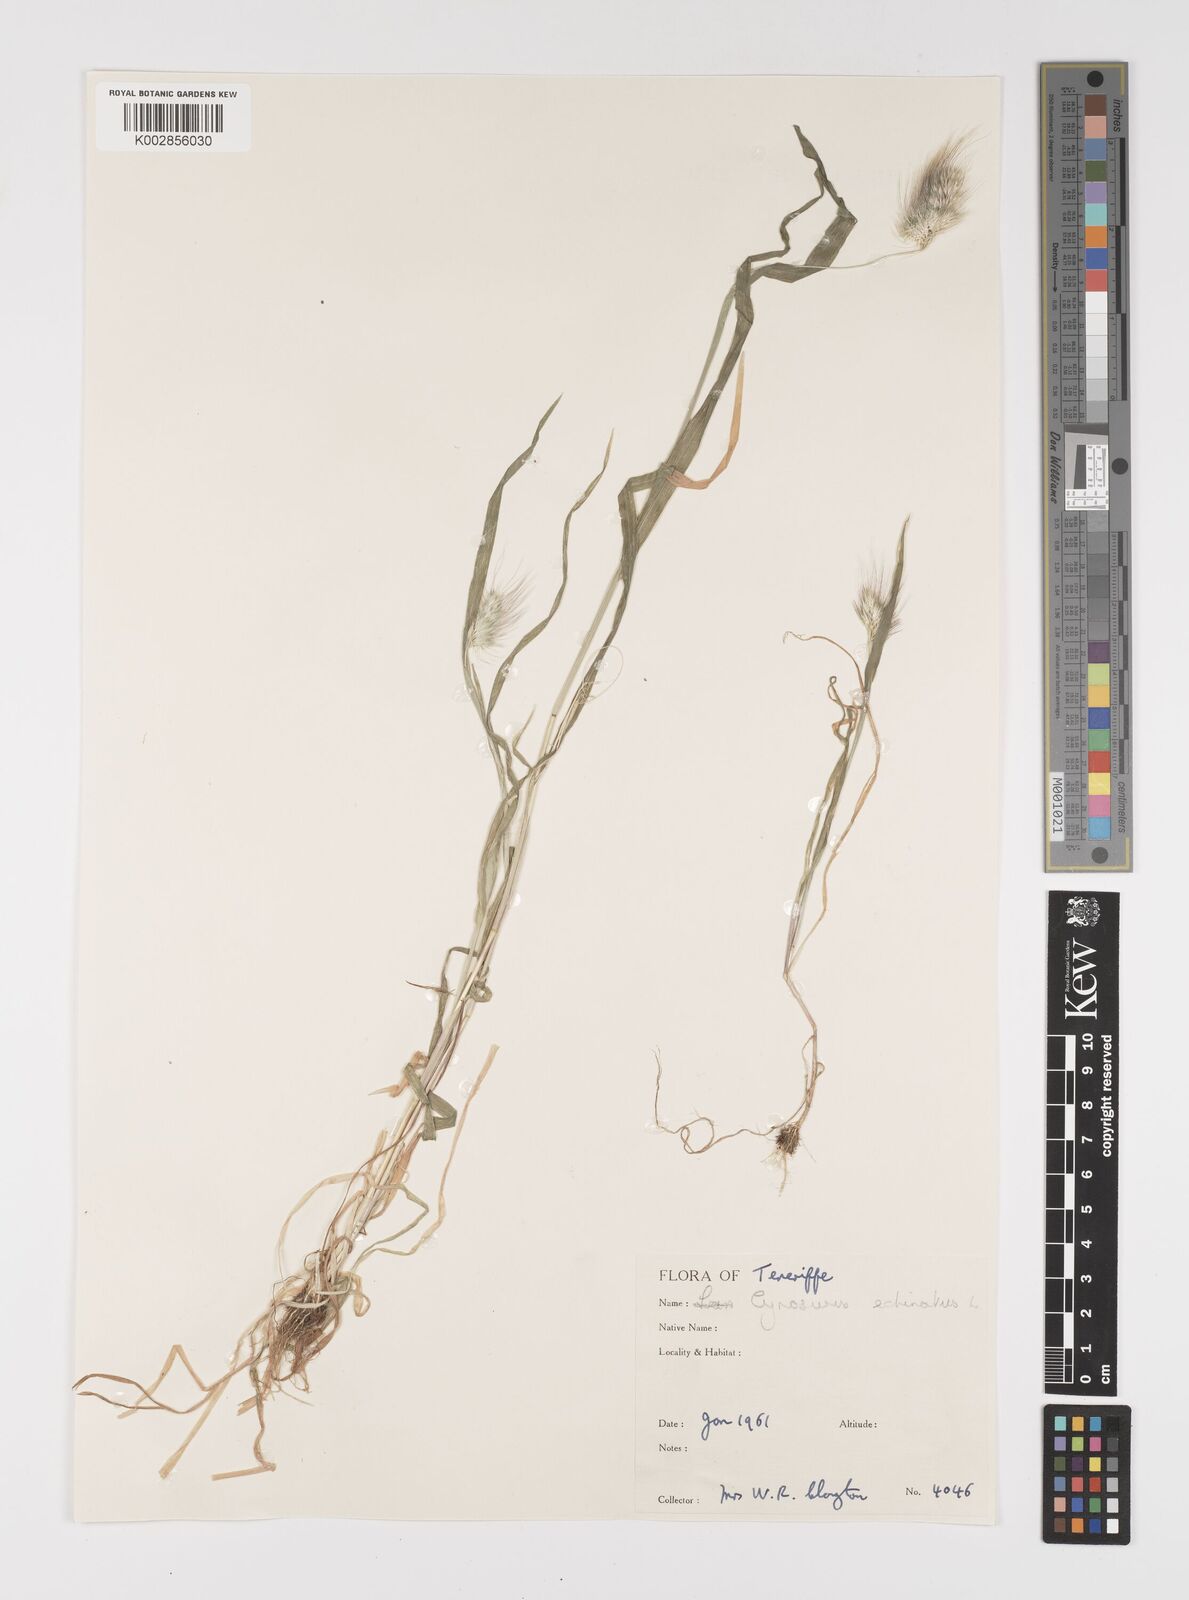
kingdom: Plantae
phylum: Tracheophyta
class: Liliopsida
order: Poales
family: Poaceae
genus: Cynosurus
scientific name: Cynosurus echinatus
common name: Rough dog's-tail
